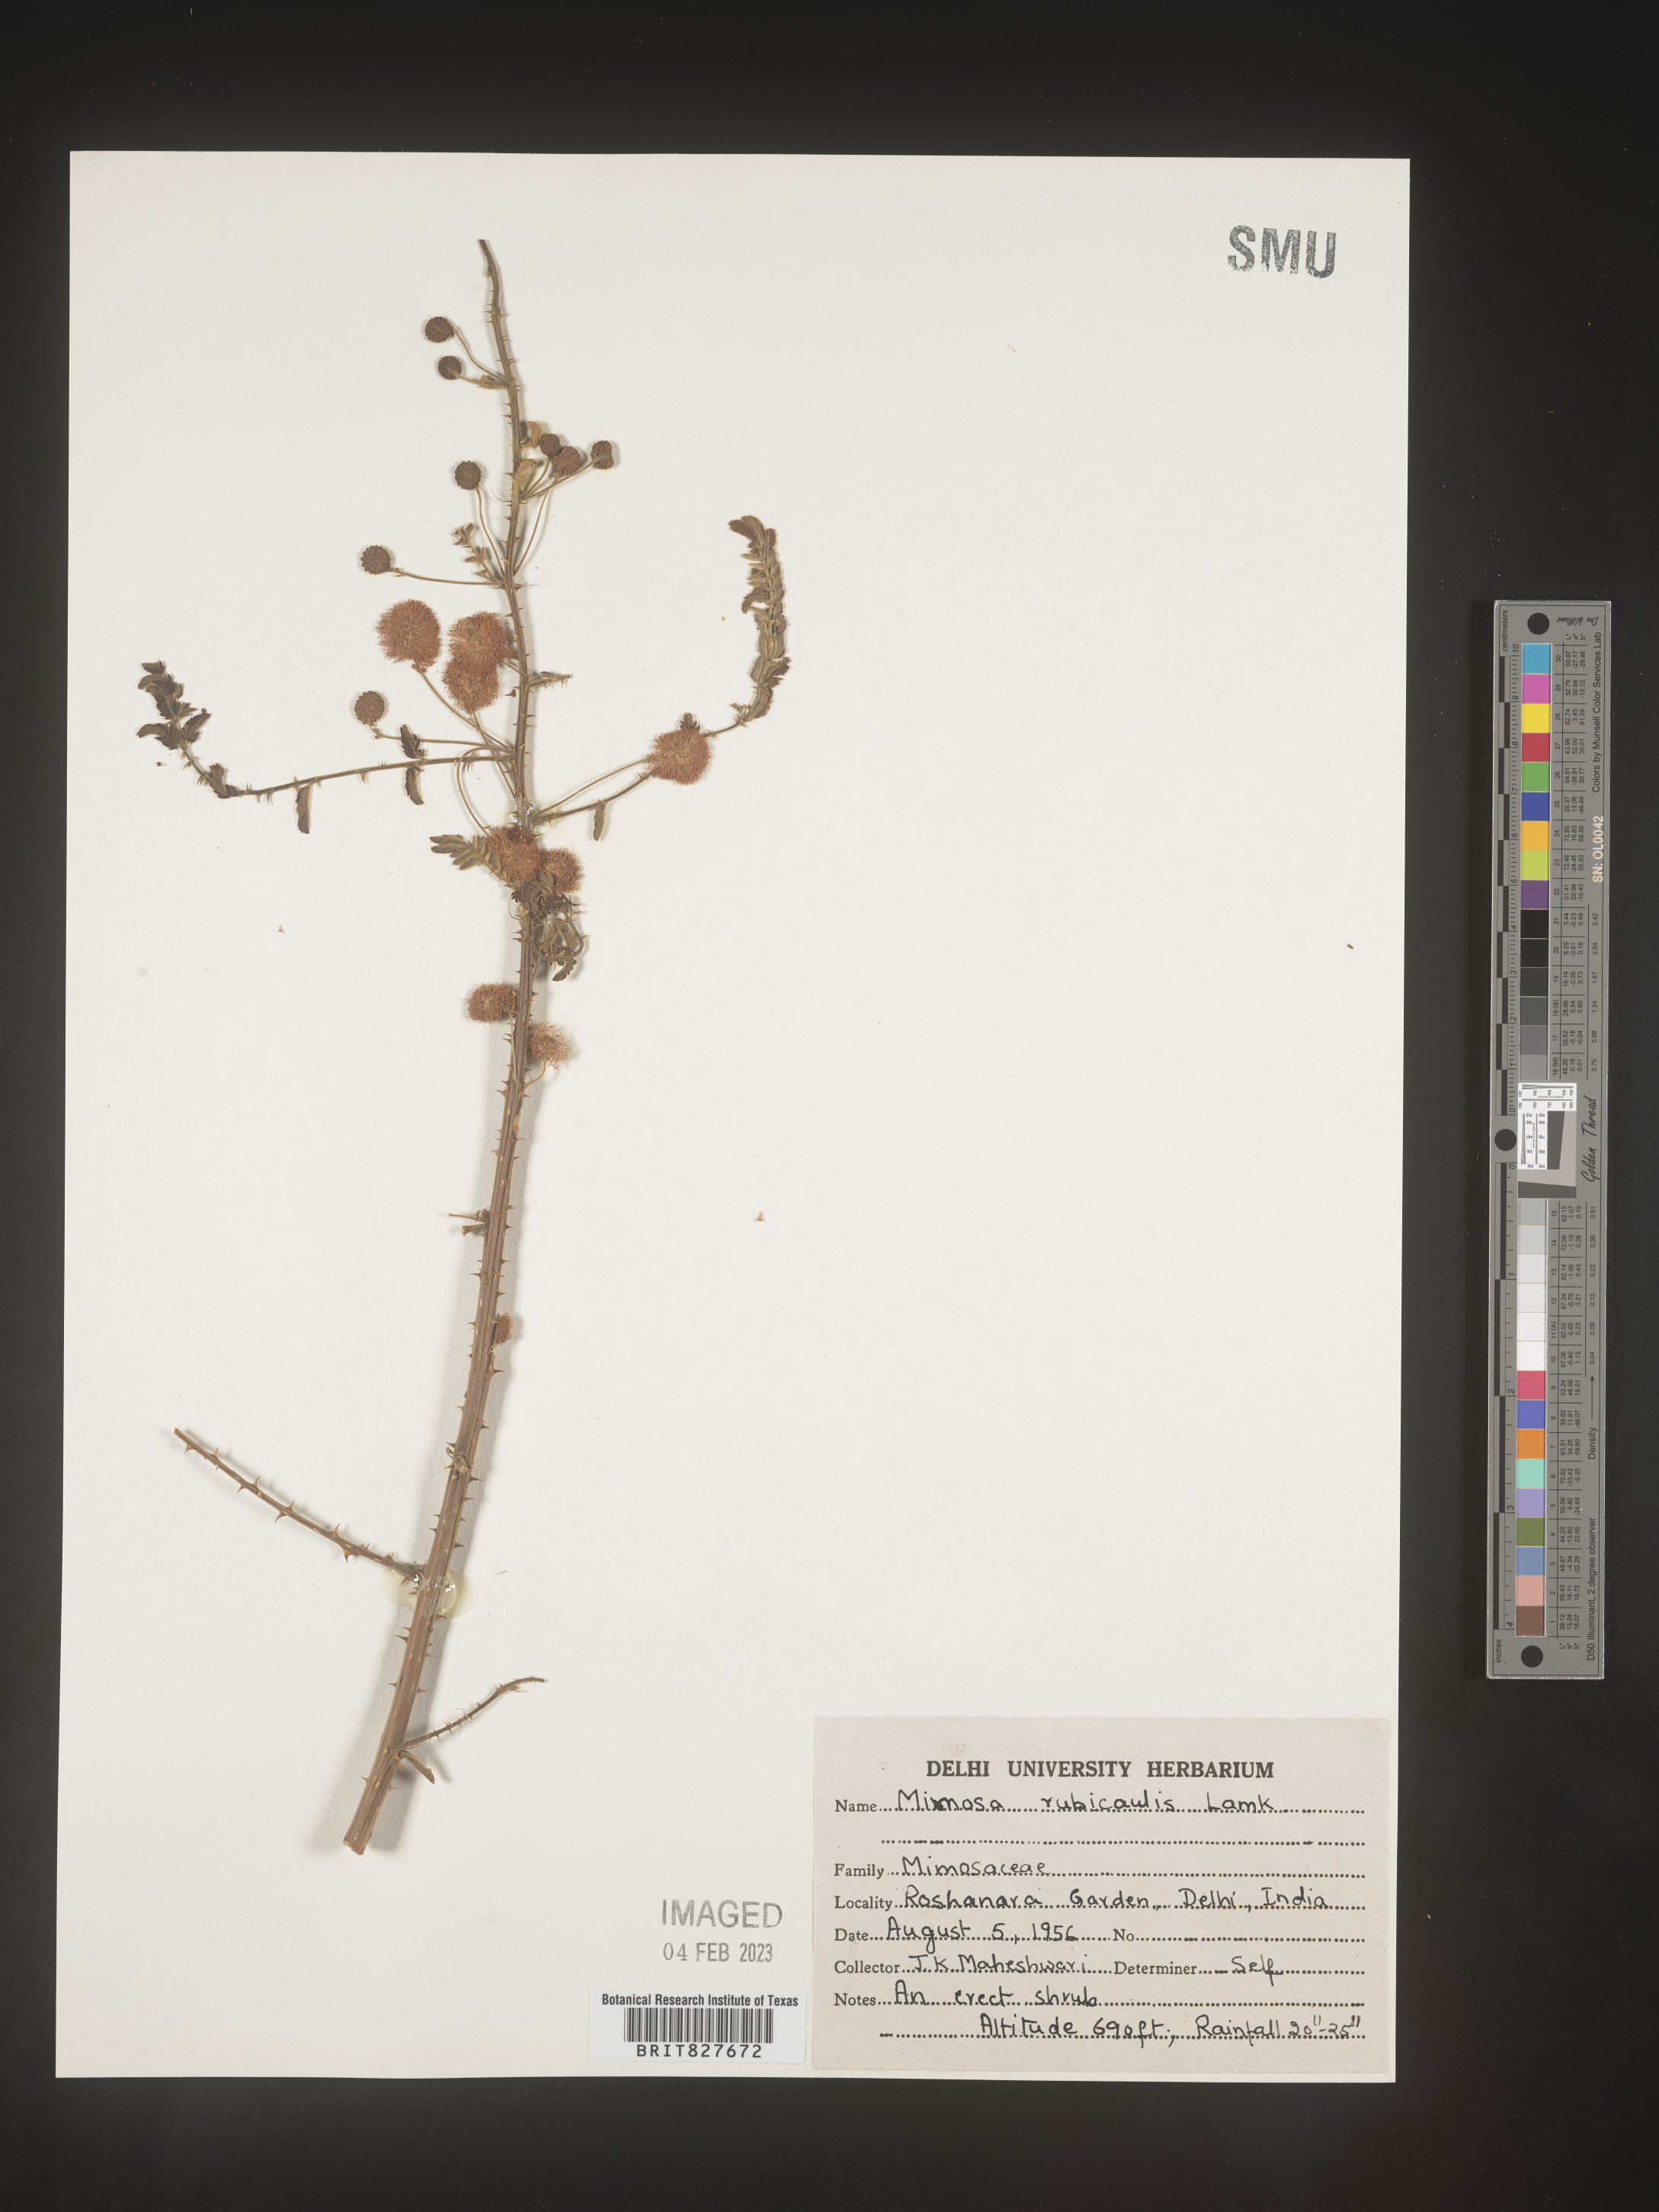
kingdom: Plantae
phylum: Tracheophyta
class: Magnoliopsida
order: Fabales
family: Fabaceae
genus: Mimosa
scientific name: Mimosa
